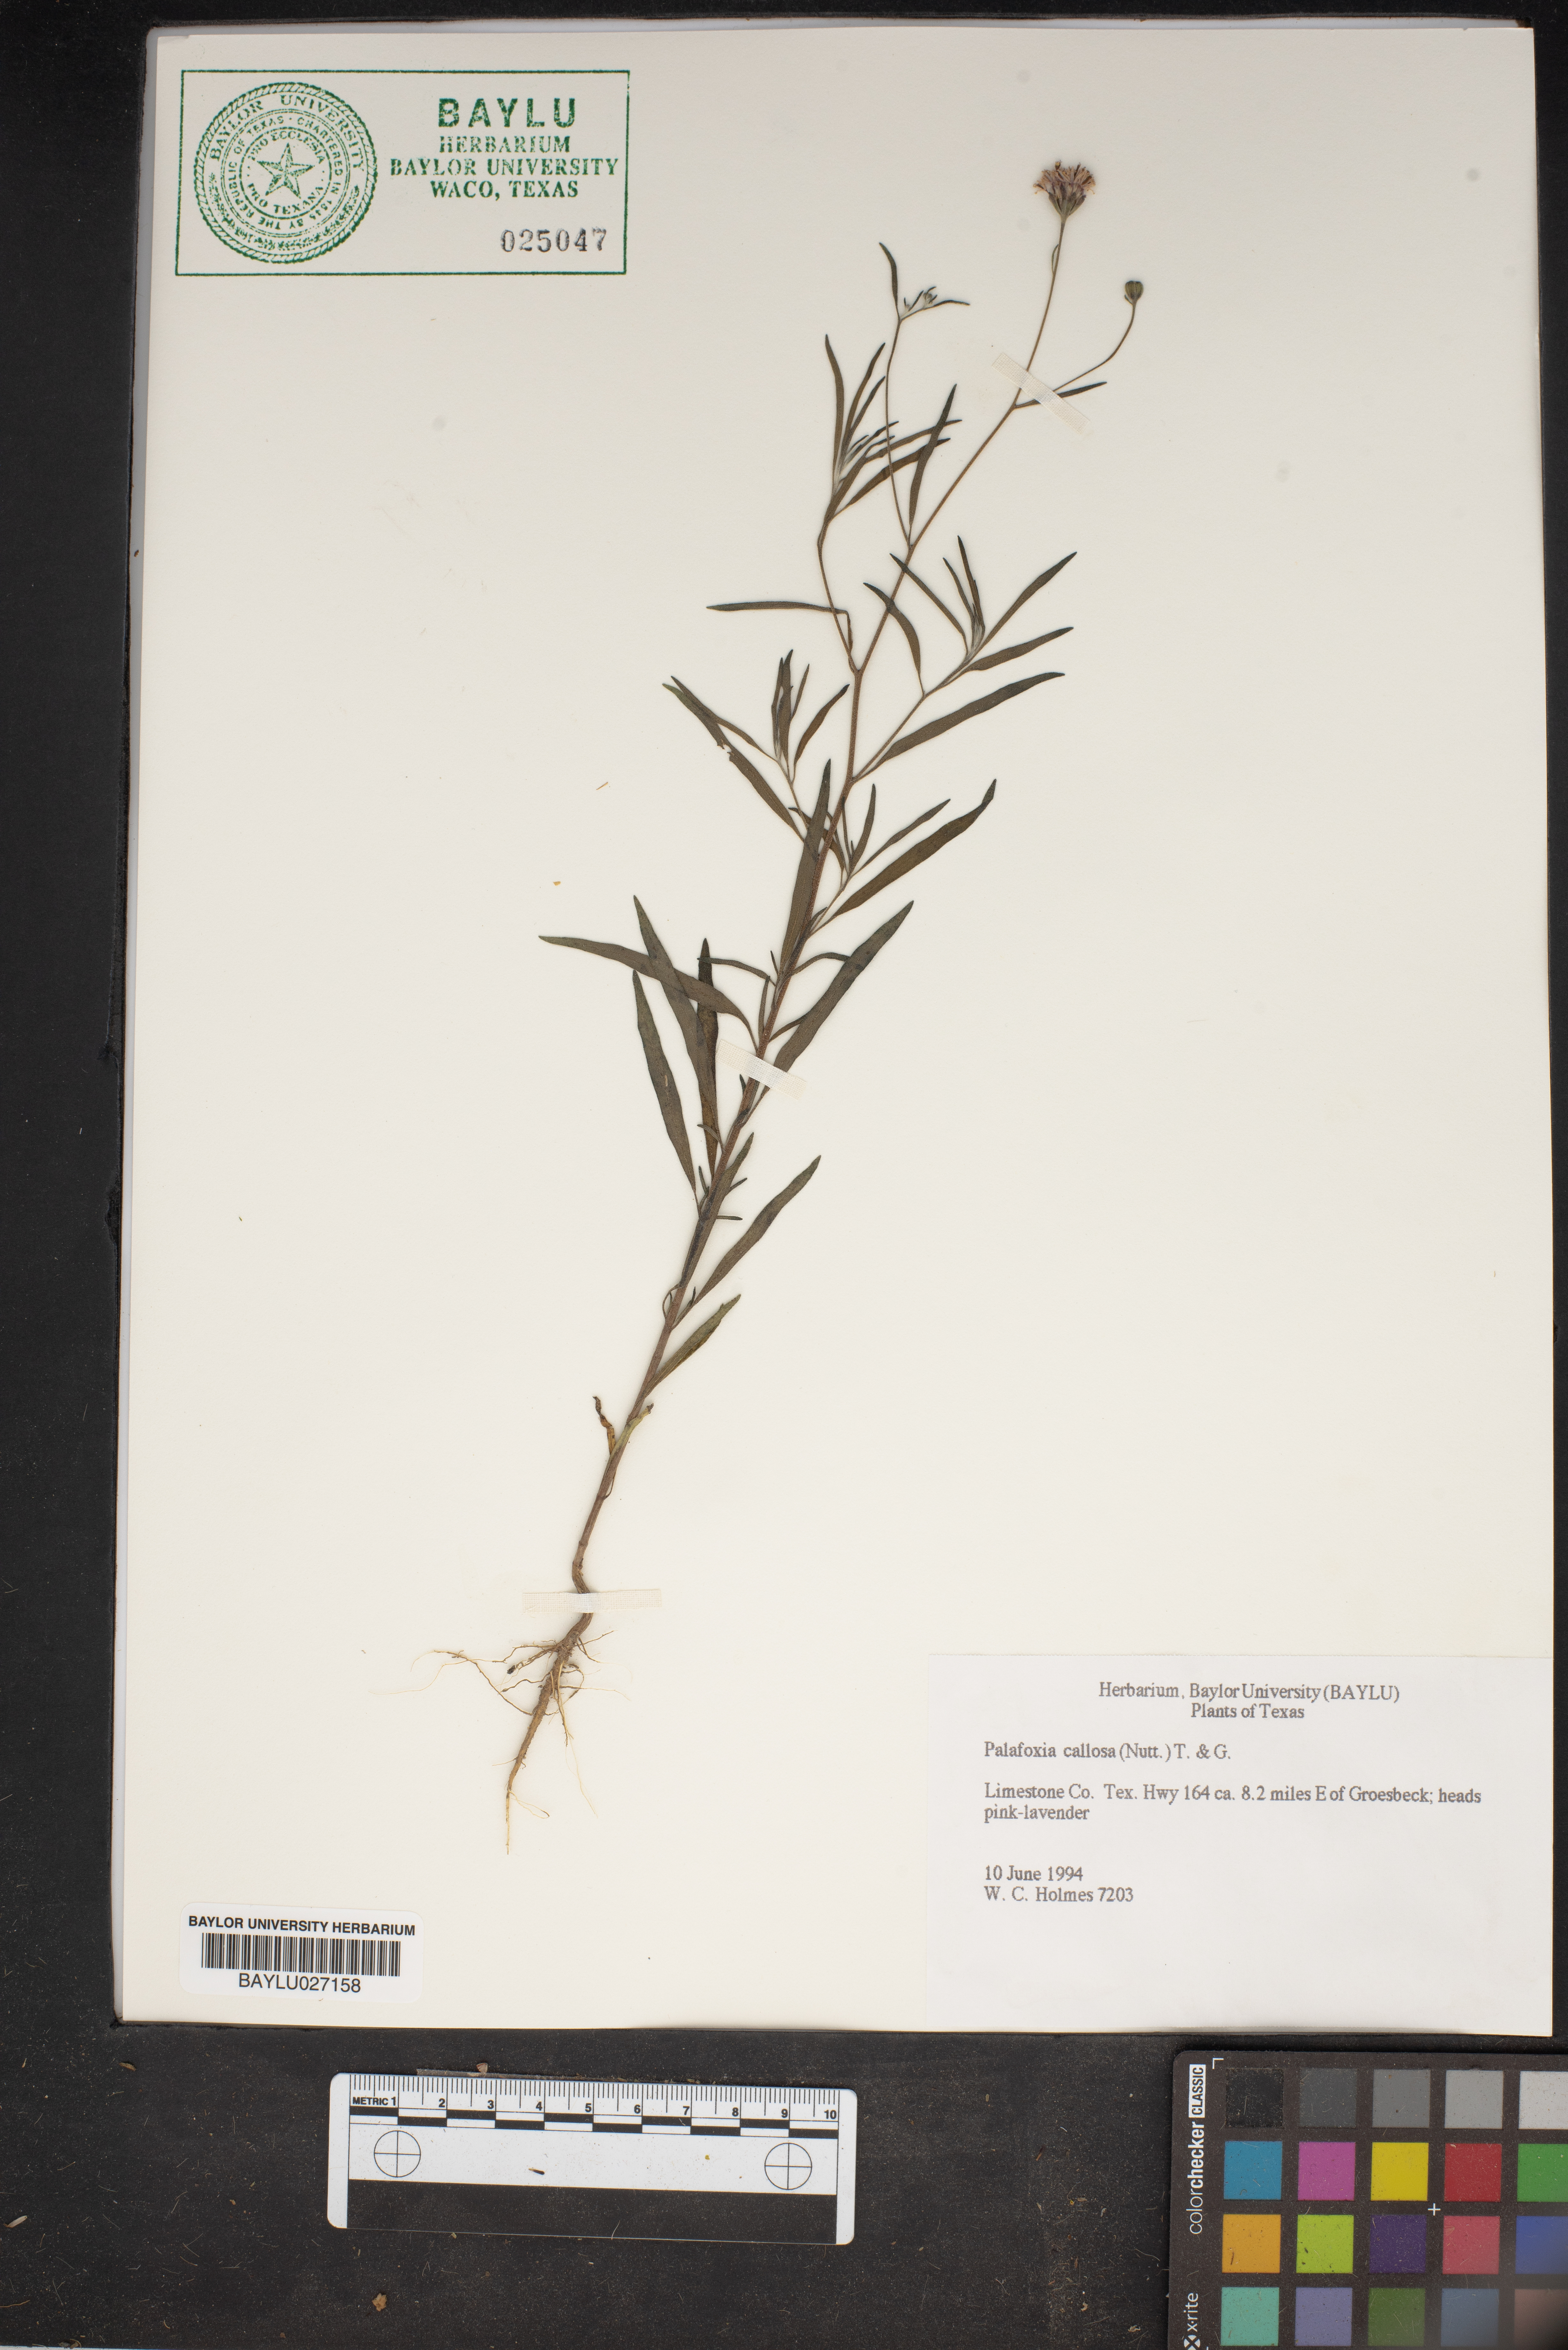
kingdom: Plantae
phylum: Tracheophyta
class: Magnoliopsida
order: Asterales
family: Asteraceae
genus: Palafoxia
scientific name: Palafoxia callosa
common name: Small palafox
